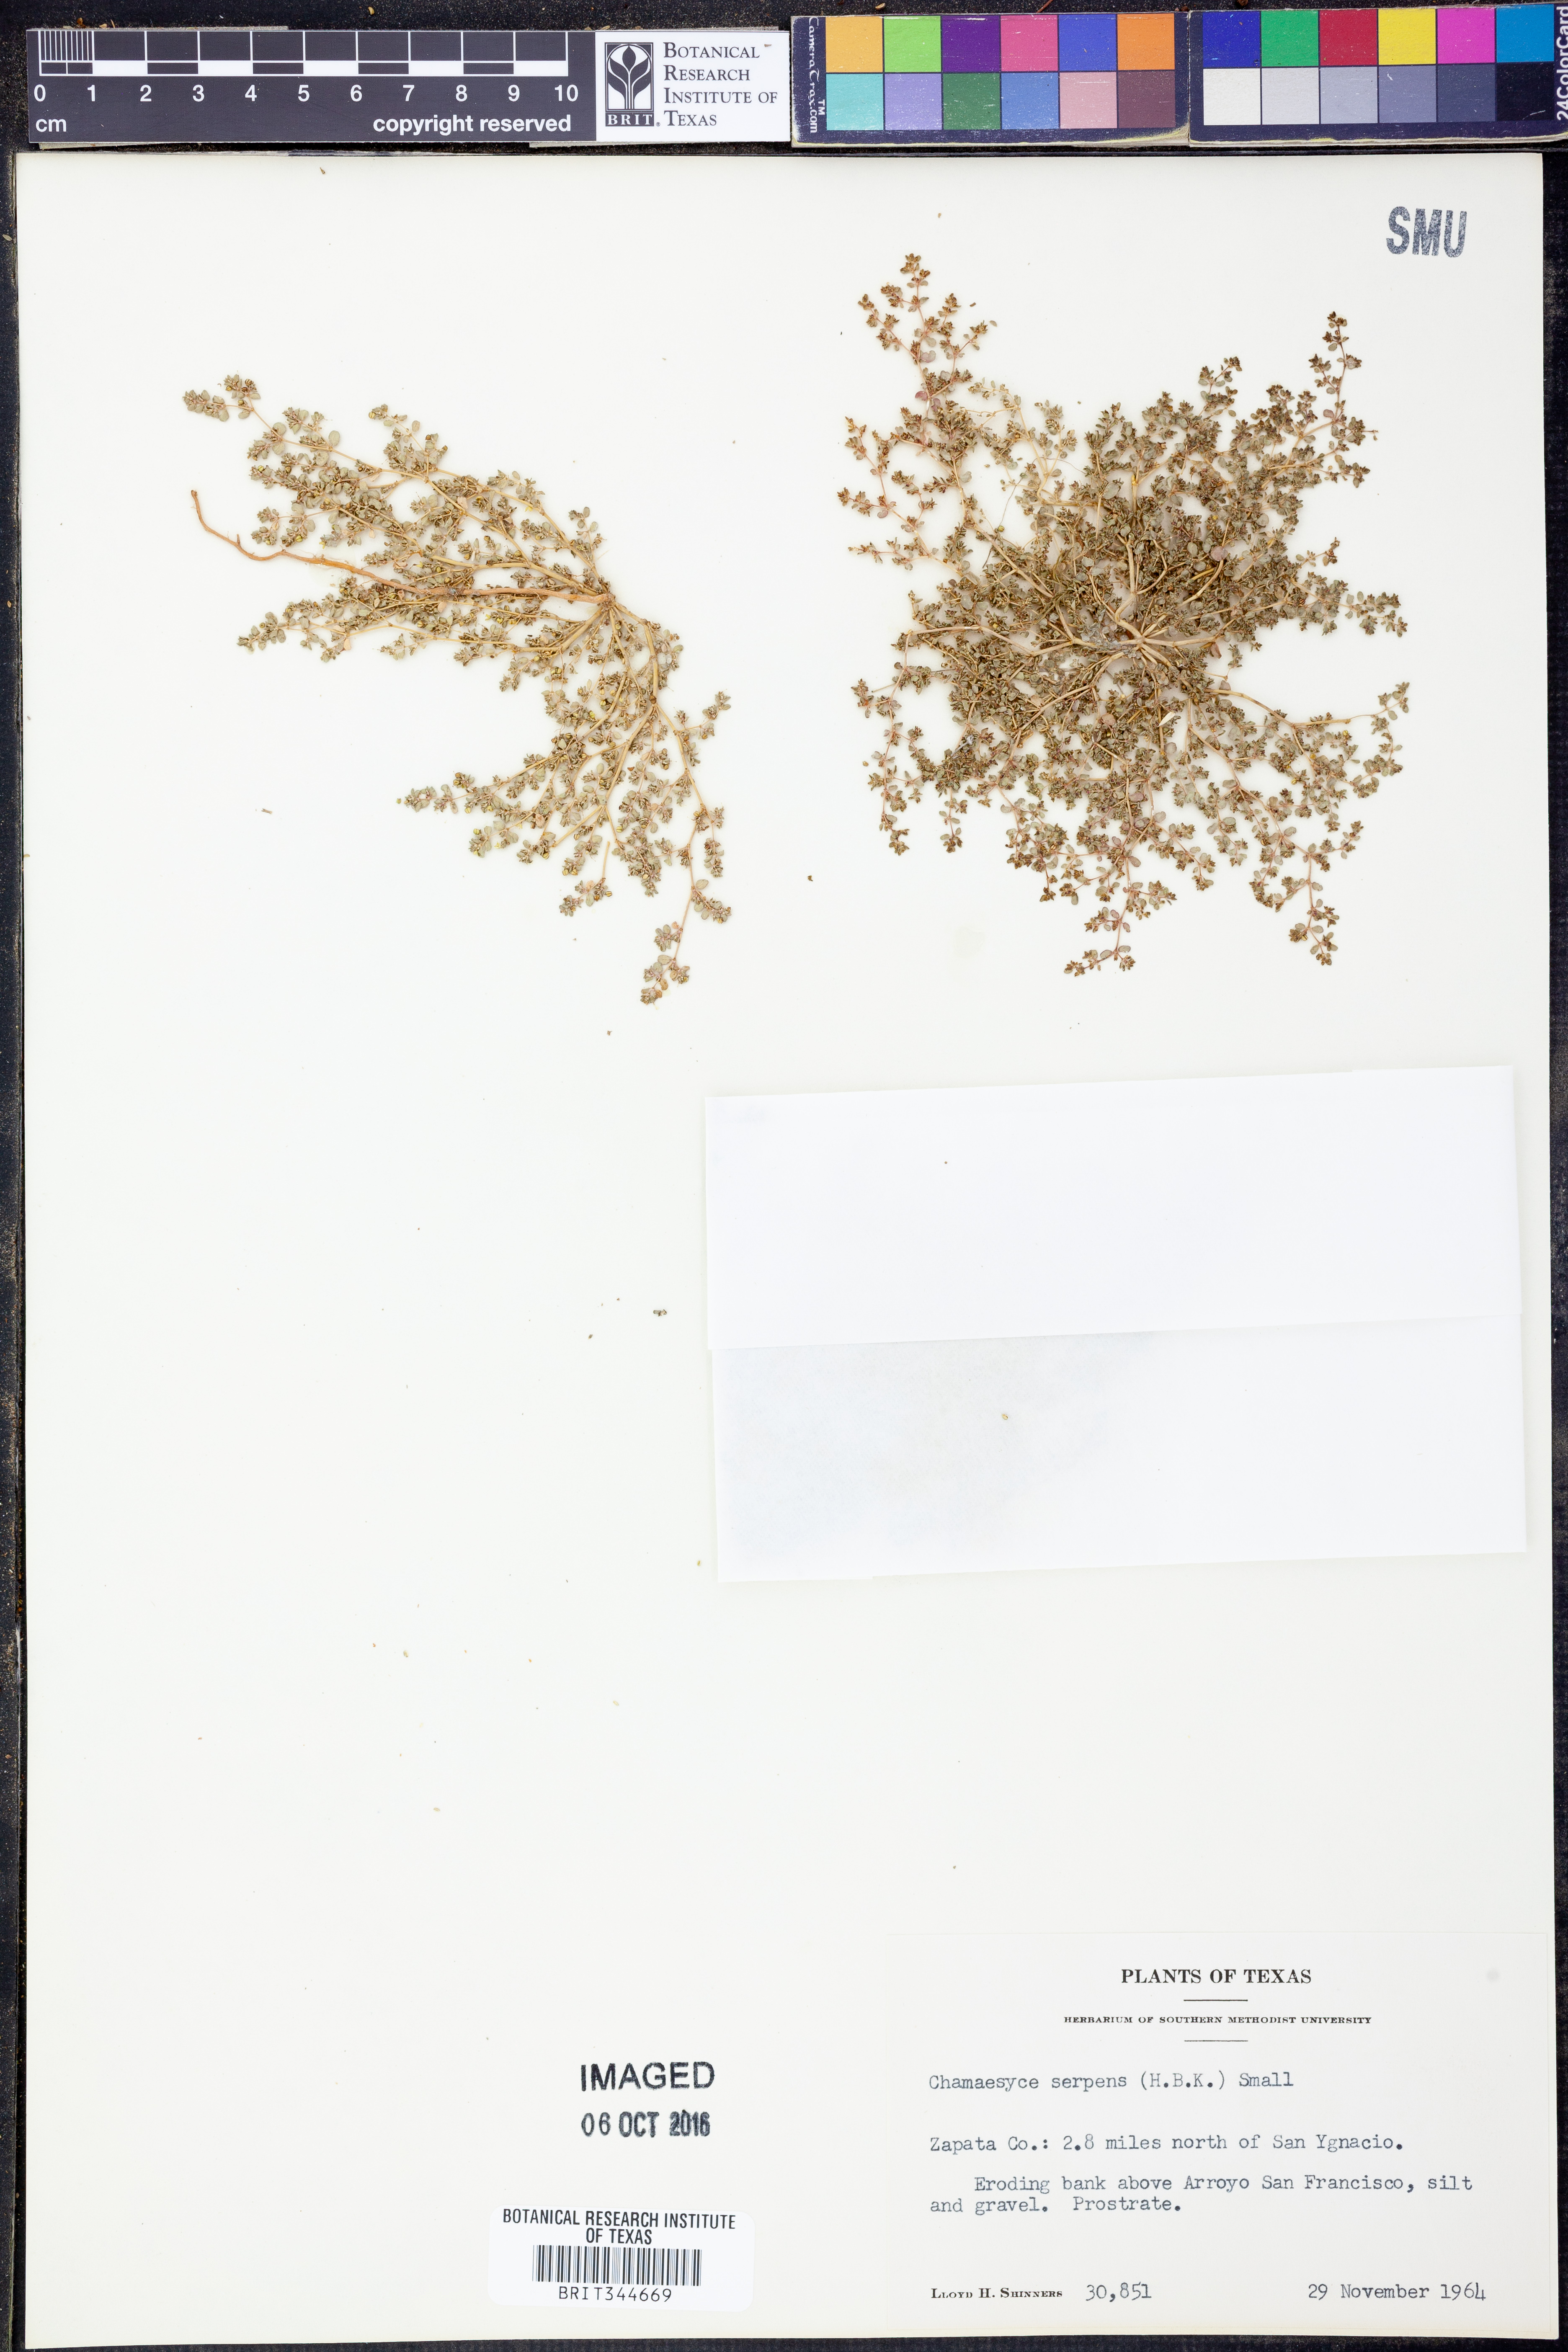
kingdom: Plantae
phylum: Tracheophyta
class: Magnoliopsida
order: Malpighiales
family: Euphorbiaceae
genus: Euphorbia
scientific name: Euphorbia serpens
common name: Matted sandmat
